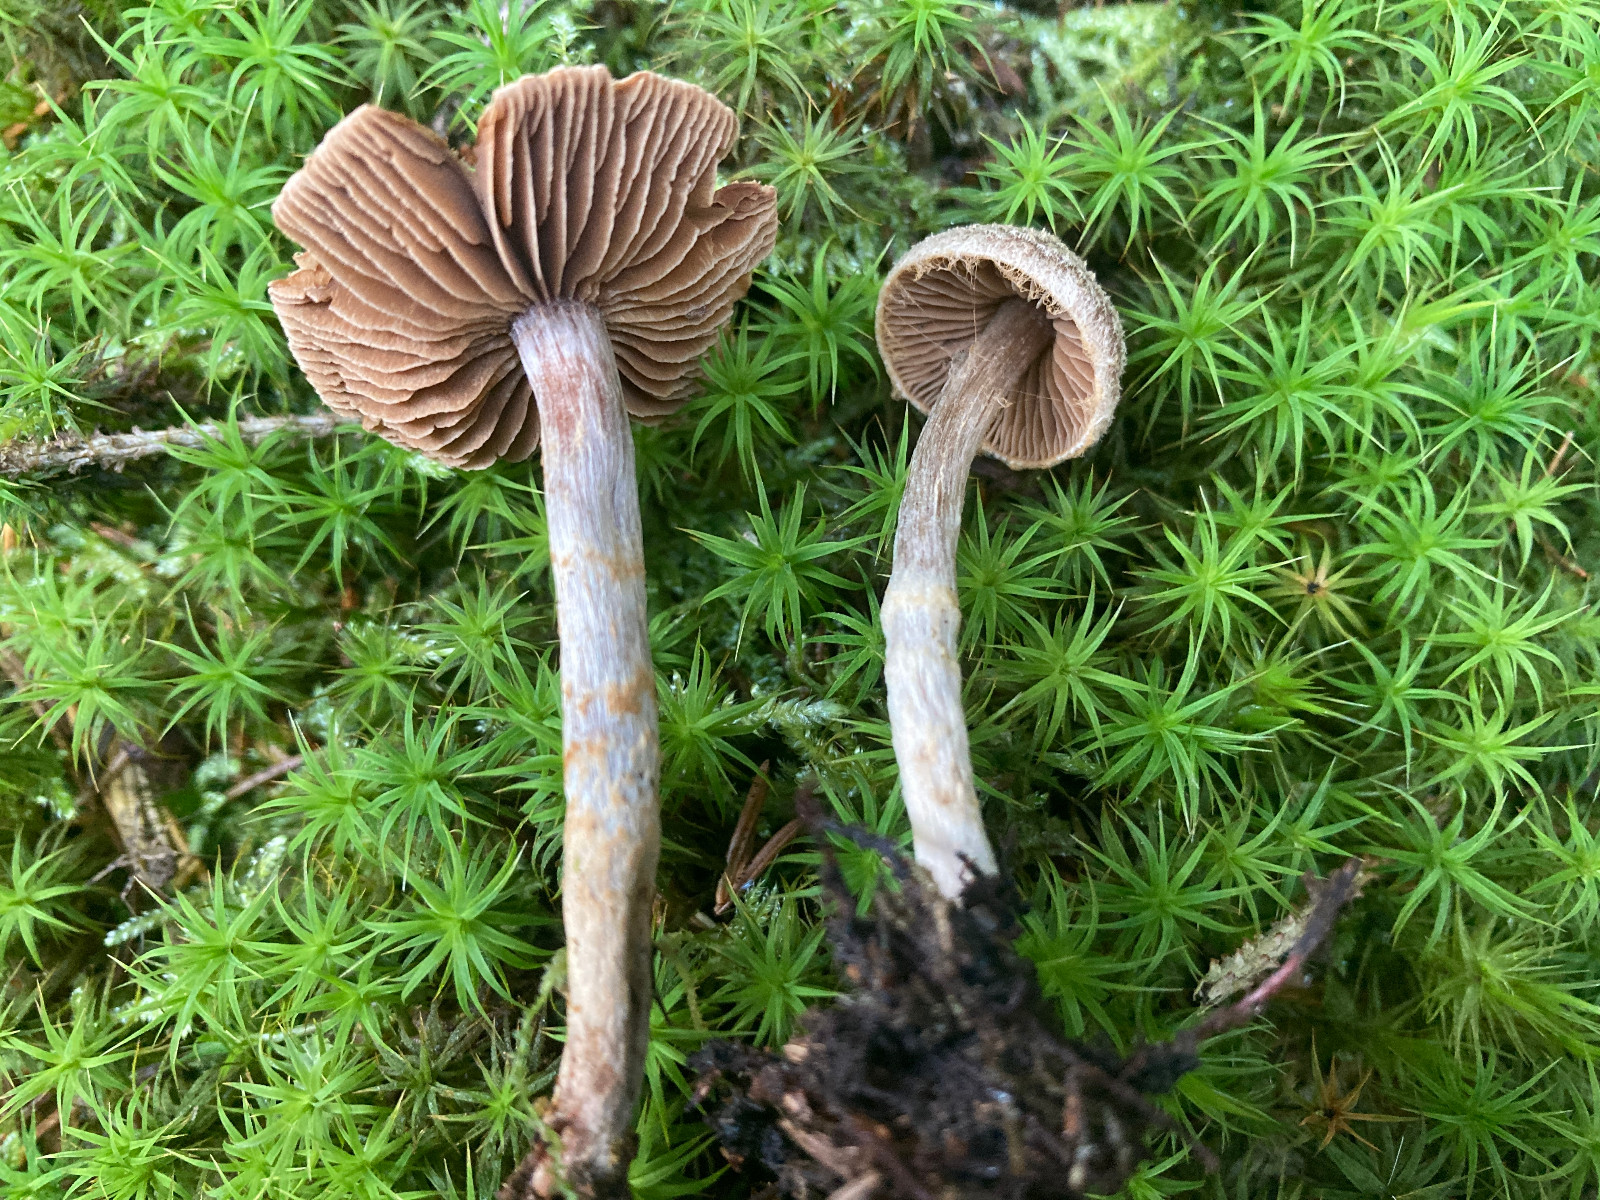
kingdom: Fungi
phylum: Basidiomycota
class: Agaricomycetes
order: Agaricales
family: Cortinariaceae
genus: Cortinarius
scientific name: Cortinarius
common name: pelargonie-slørhat
